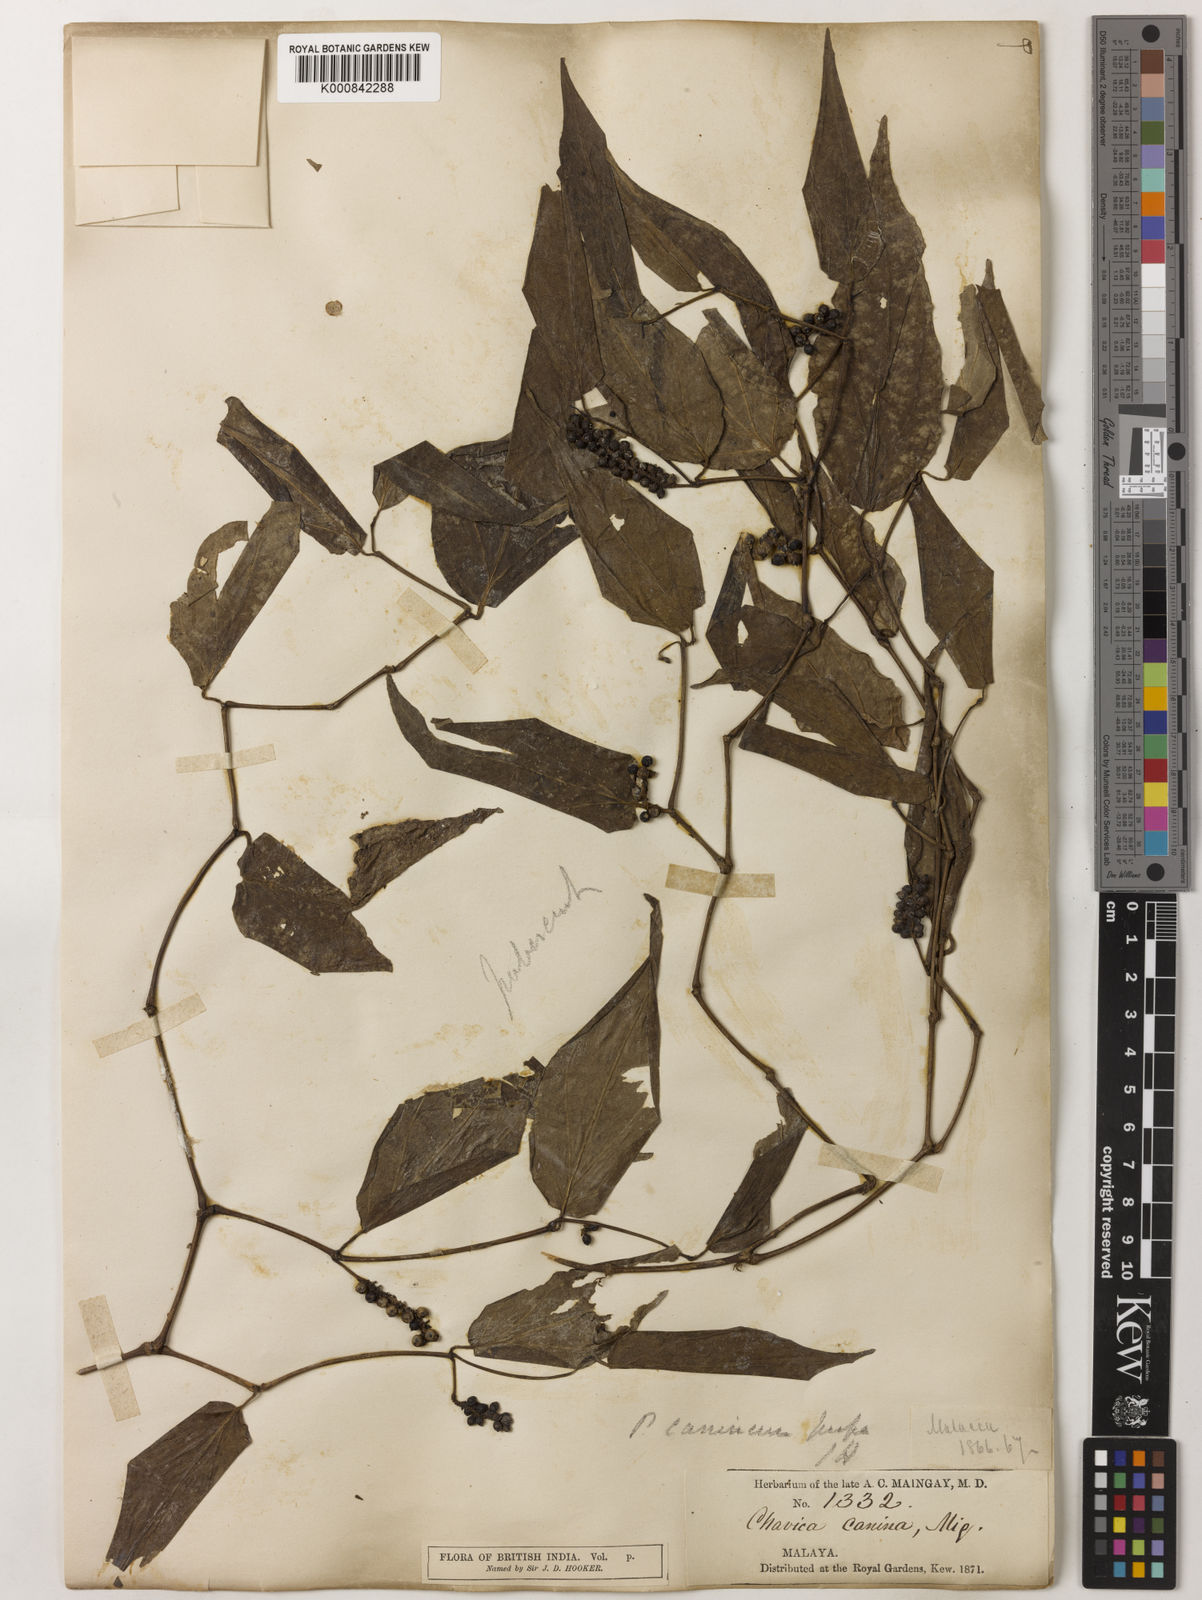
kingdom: Plantae
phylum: Tracheophyta
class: Magnoliopsida
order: Piperales
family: Piperaceae
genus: Piper
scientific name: Piper lanatum
